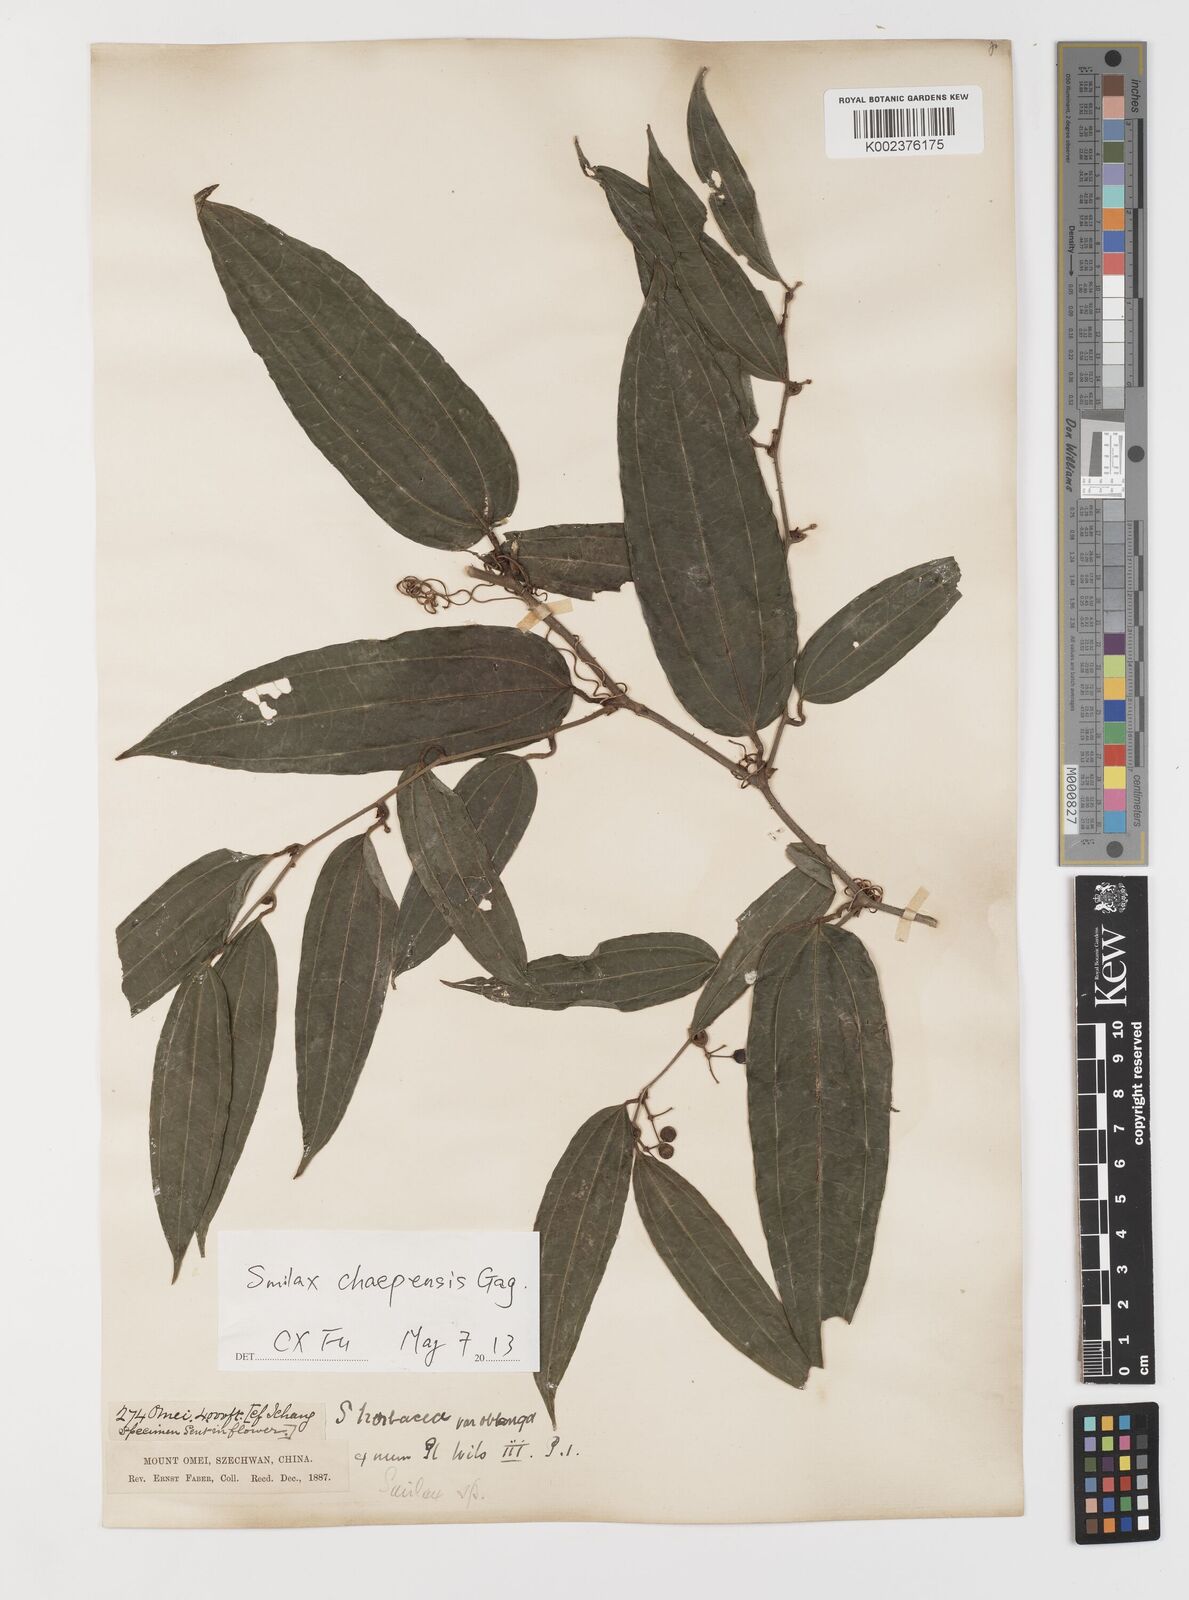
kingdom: Plantae
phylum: Tracheophyta
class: Liliopsida
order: Liliales
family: Smilacaceae
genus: Smilax
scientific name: Smilax chapaensis
